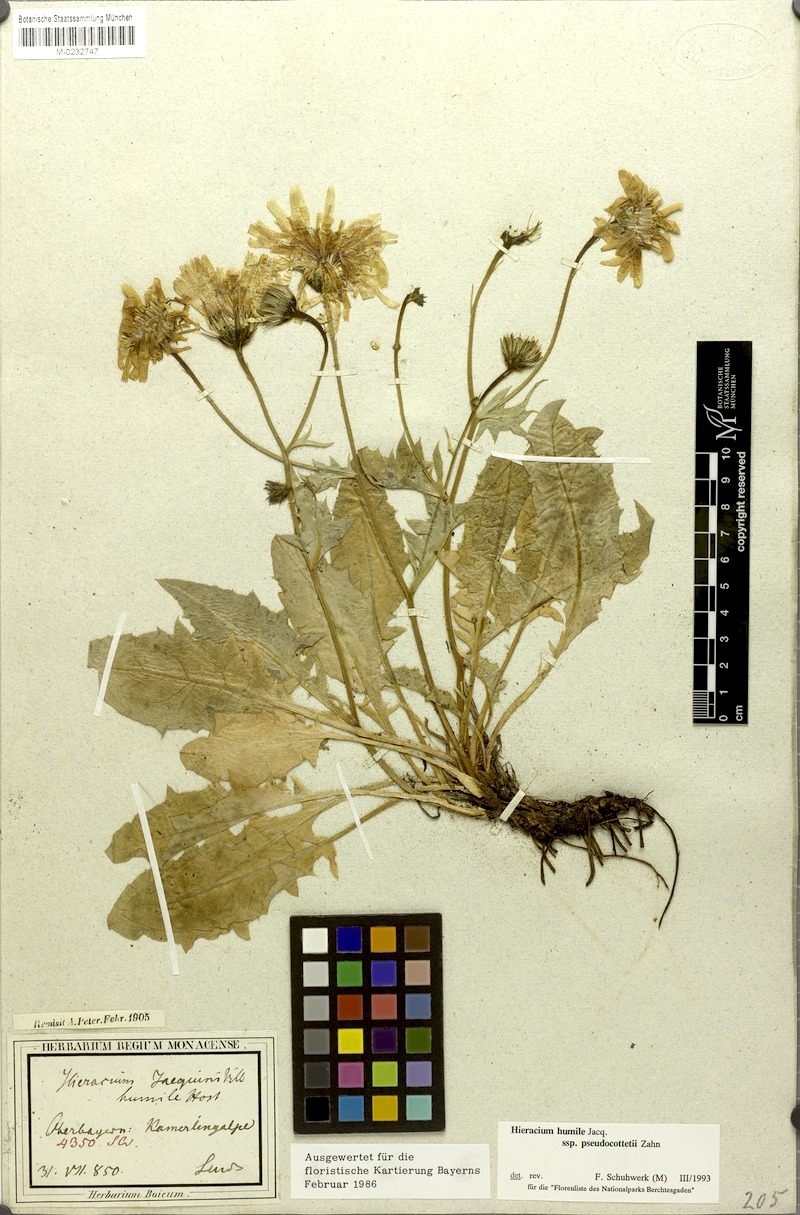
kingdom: Plantae
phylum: Tracheophyta
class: Magnoliopsida
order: Asterales
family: Asteraceae
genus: Hieracium
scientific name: Hieracium humile
